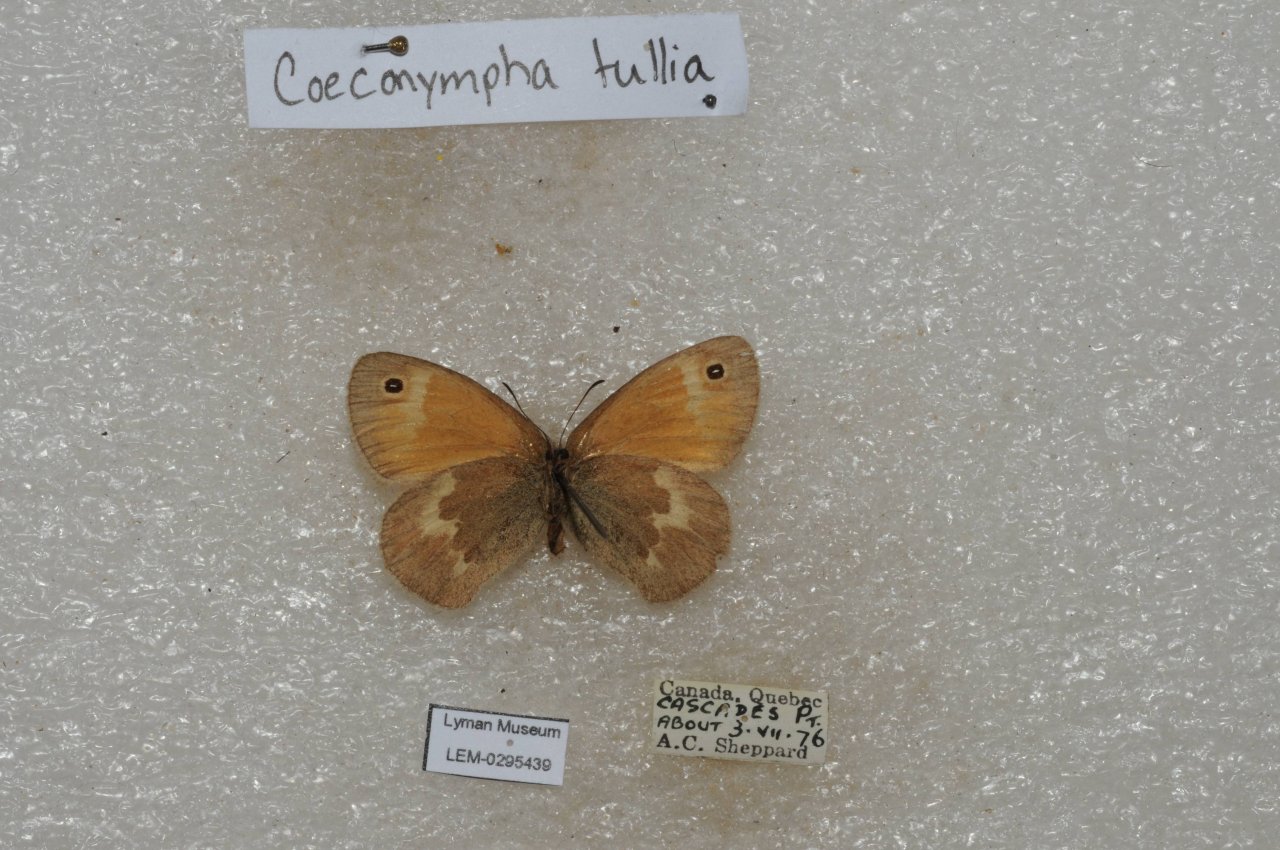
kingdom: Animalia
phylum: Arthropoda
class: Insecta
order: Lepidoptera
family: Nymphalidae
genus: Coenonympha
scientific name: Coenonympha tullia
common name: Large Heath
